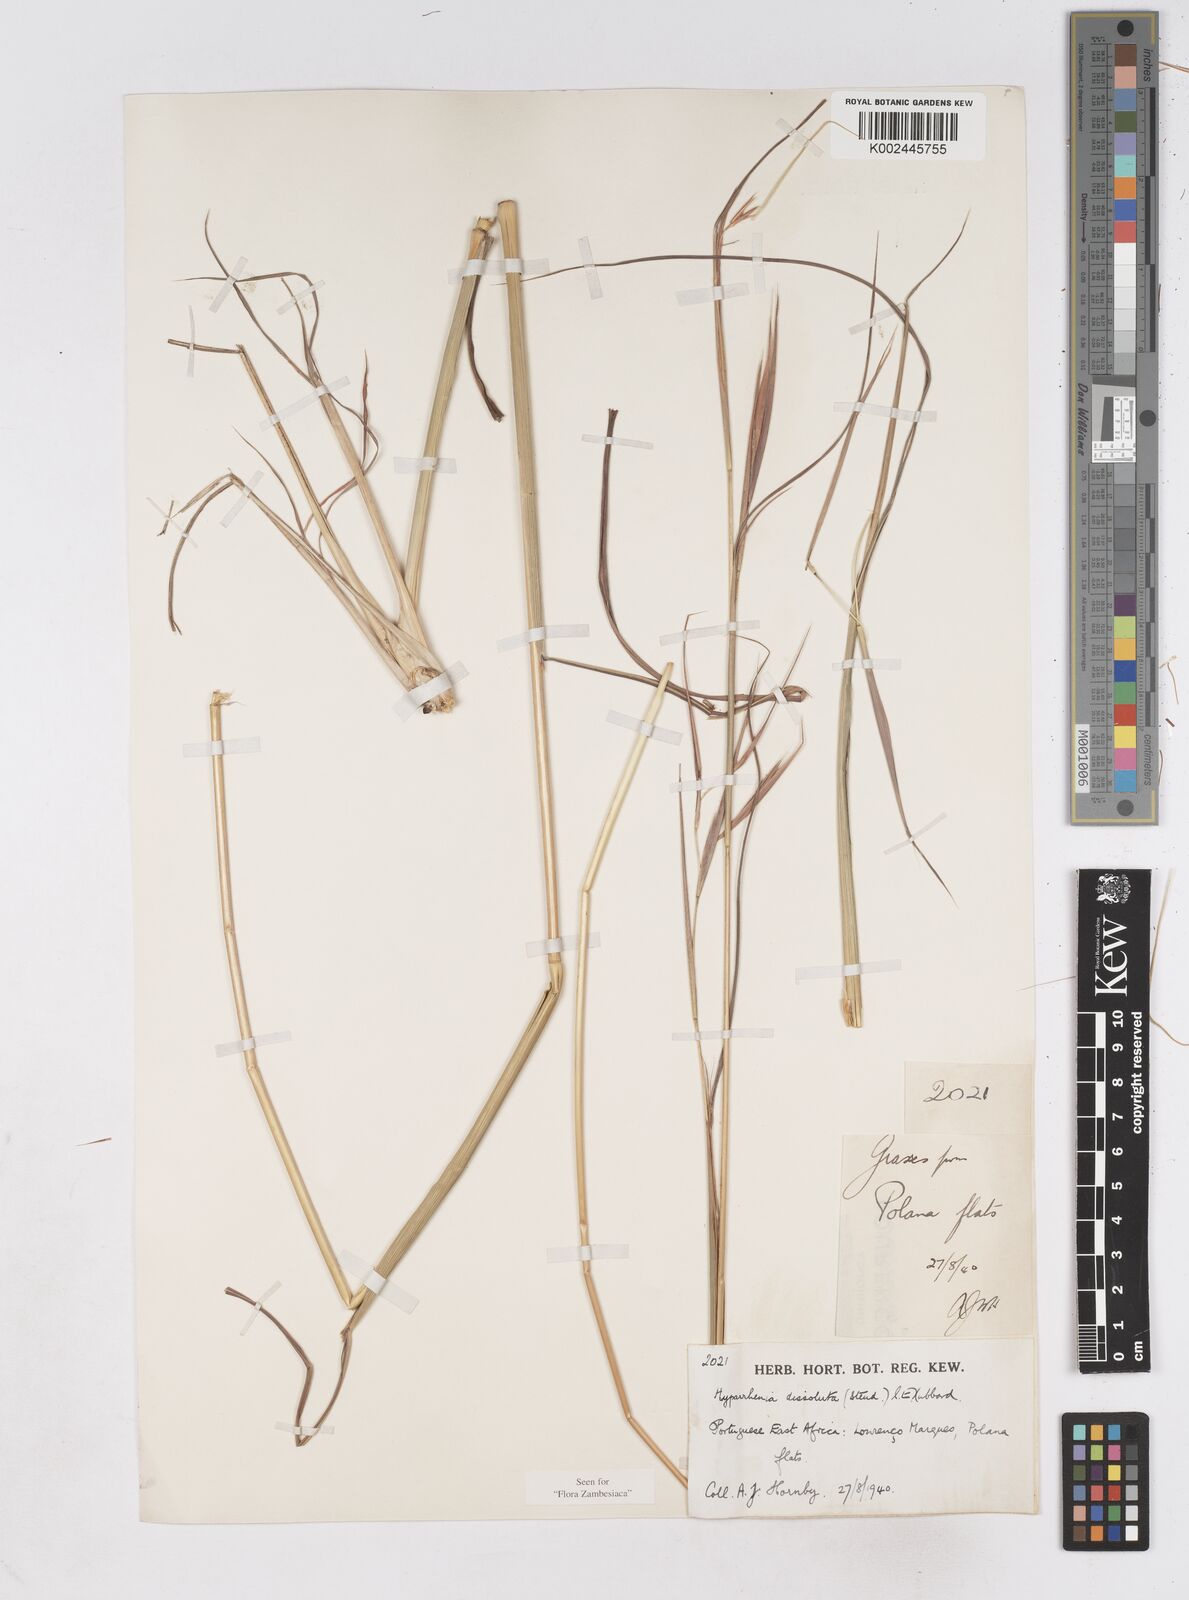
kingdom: Plantae
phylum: Tracheophyta
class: Liliopsida
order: Poales
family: Poaceae
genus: Hyperthelia
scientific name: Hyperthelia dissoluta
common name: Yellow thatching grass
